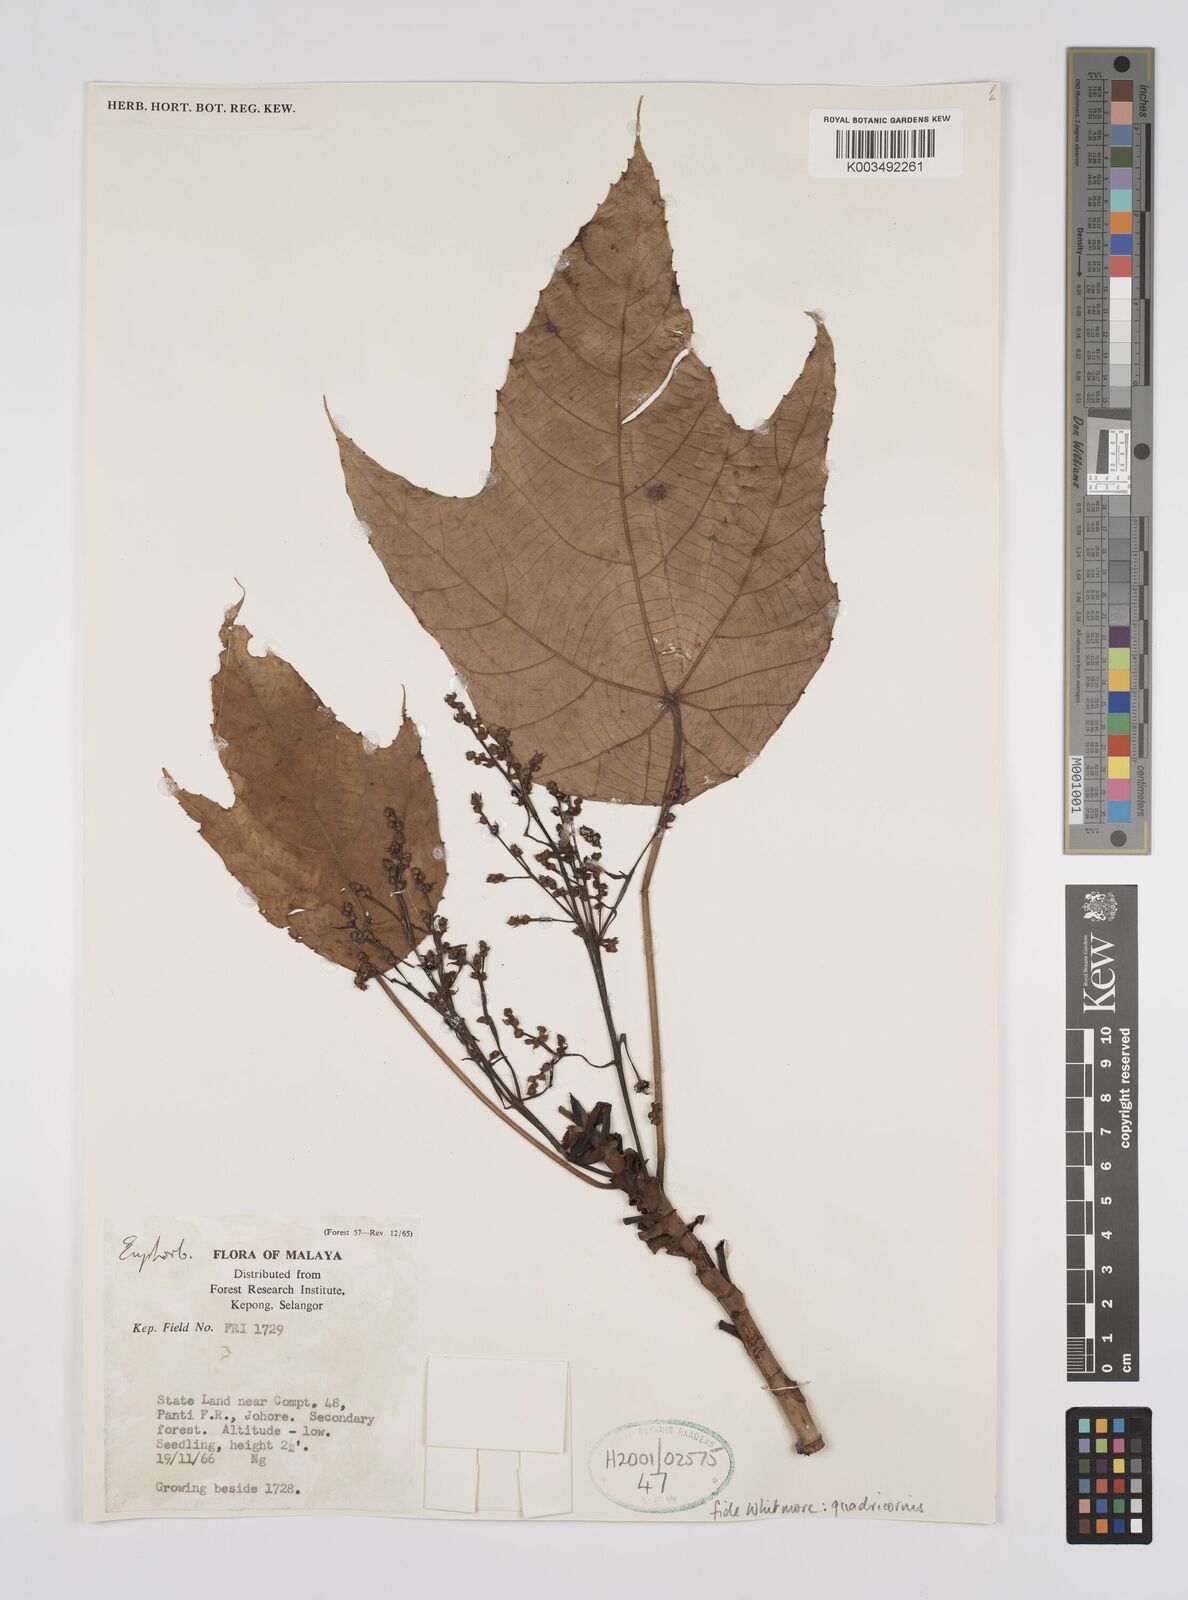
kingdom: Plantae
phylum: Tracheophyta
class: Magnoliopsida
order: Malpighiales
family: Euphorbiaceae
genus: Macaranga
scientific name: Macaranga triloba
